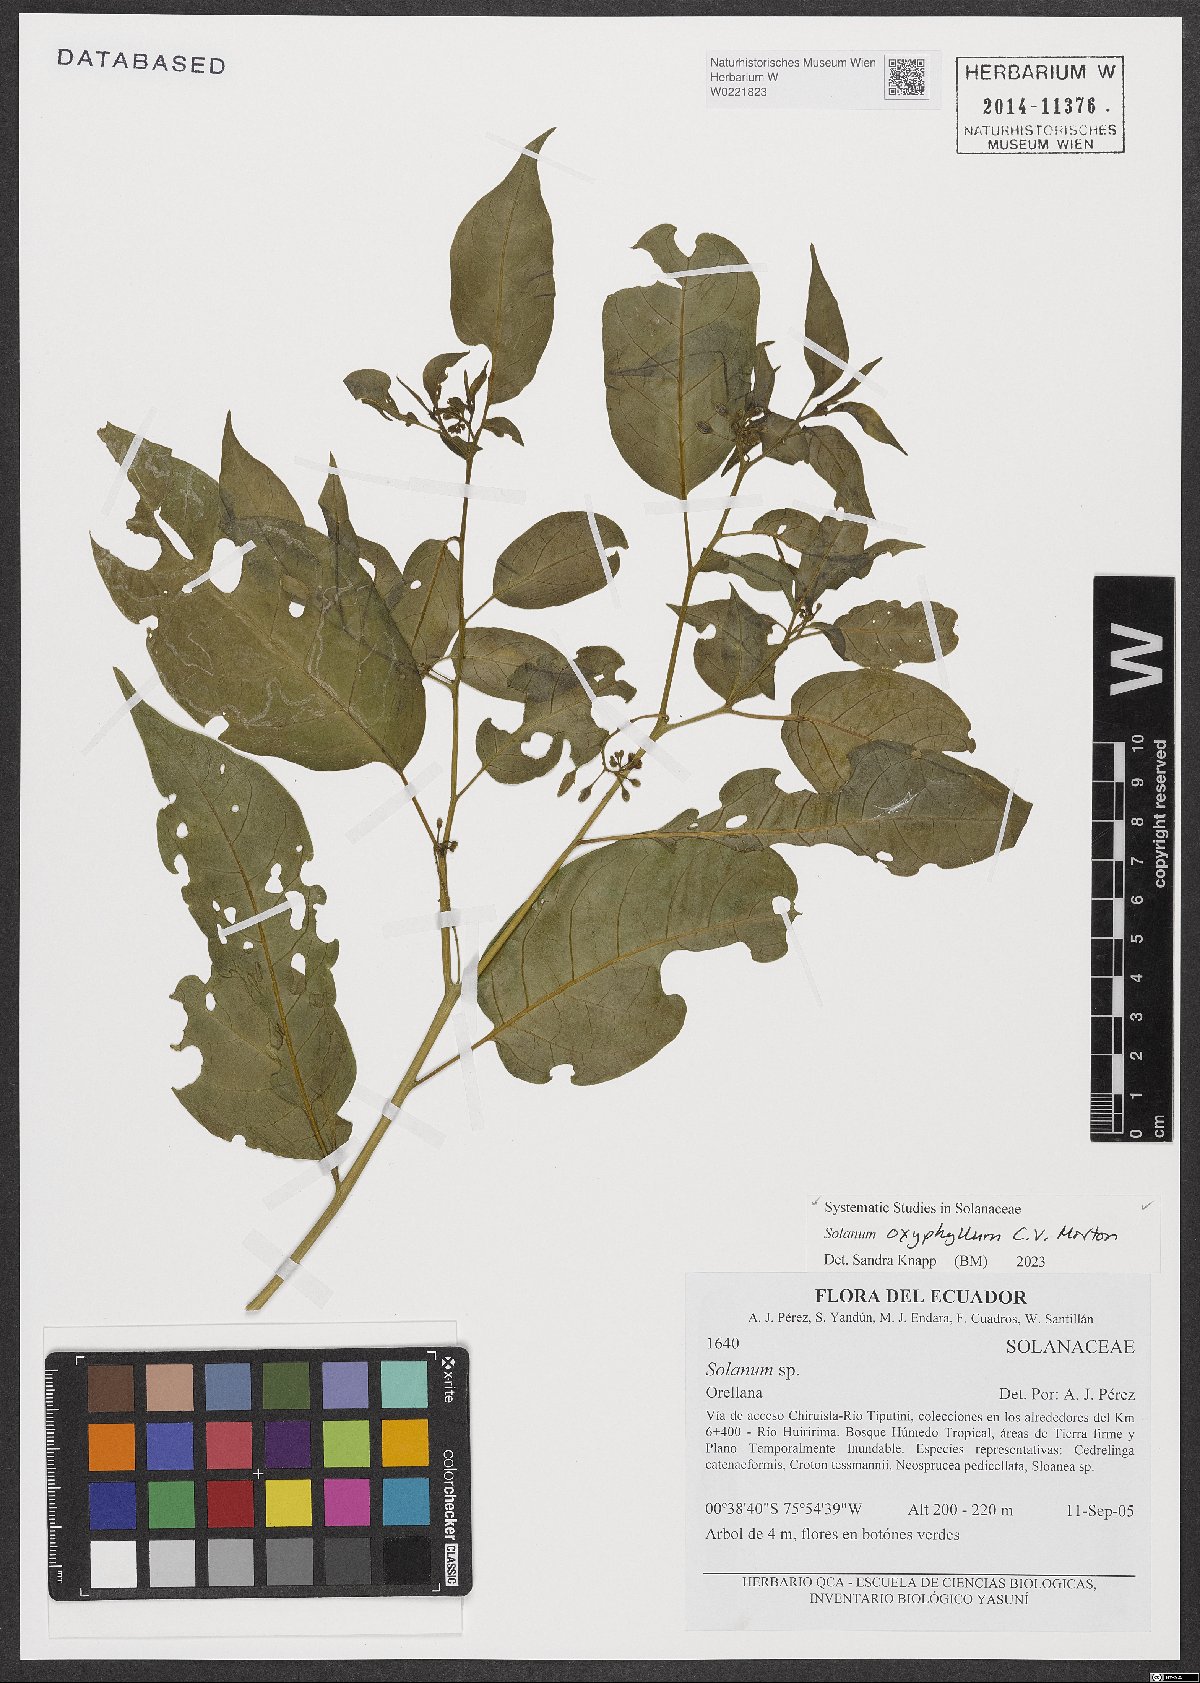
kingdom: Plantae
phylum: Tracheophyta
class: Magnoliopsida
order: Solanales
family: Solanaceae
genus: Solanum
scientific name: Solanum oxyphyllum
